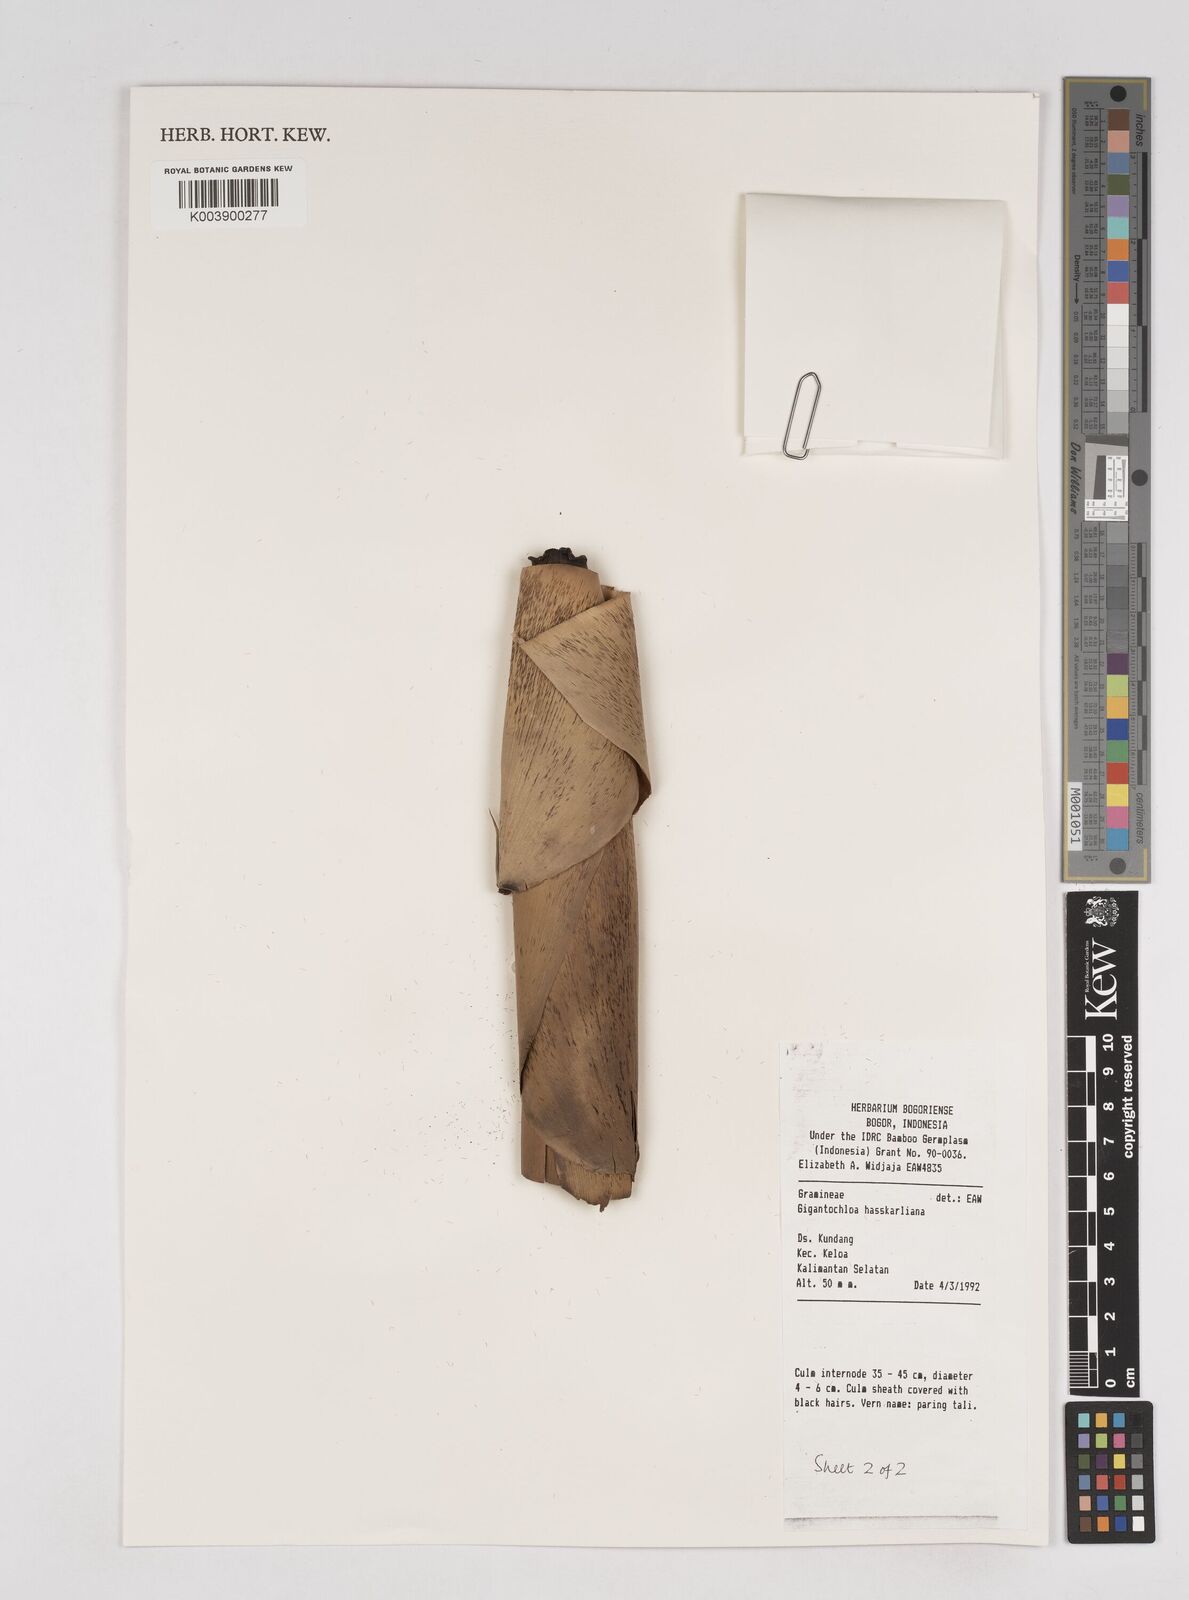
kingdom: Plantae
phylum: Tracheophyta
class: Liliopsida
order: Poales
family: Poaceae
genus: Gigantochloa
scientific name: Gigantochloa hasskarliana
